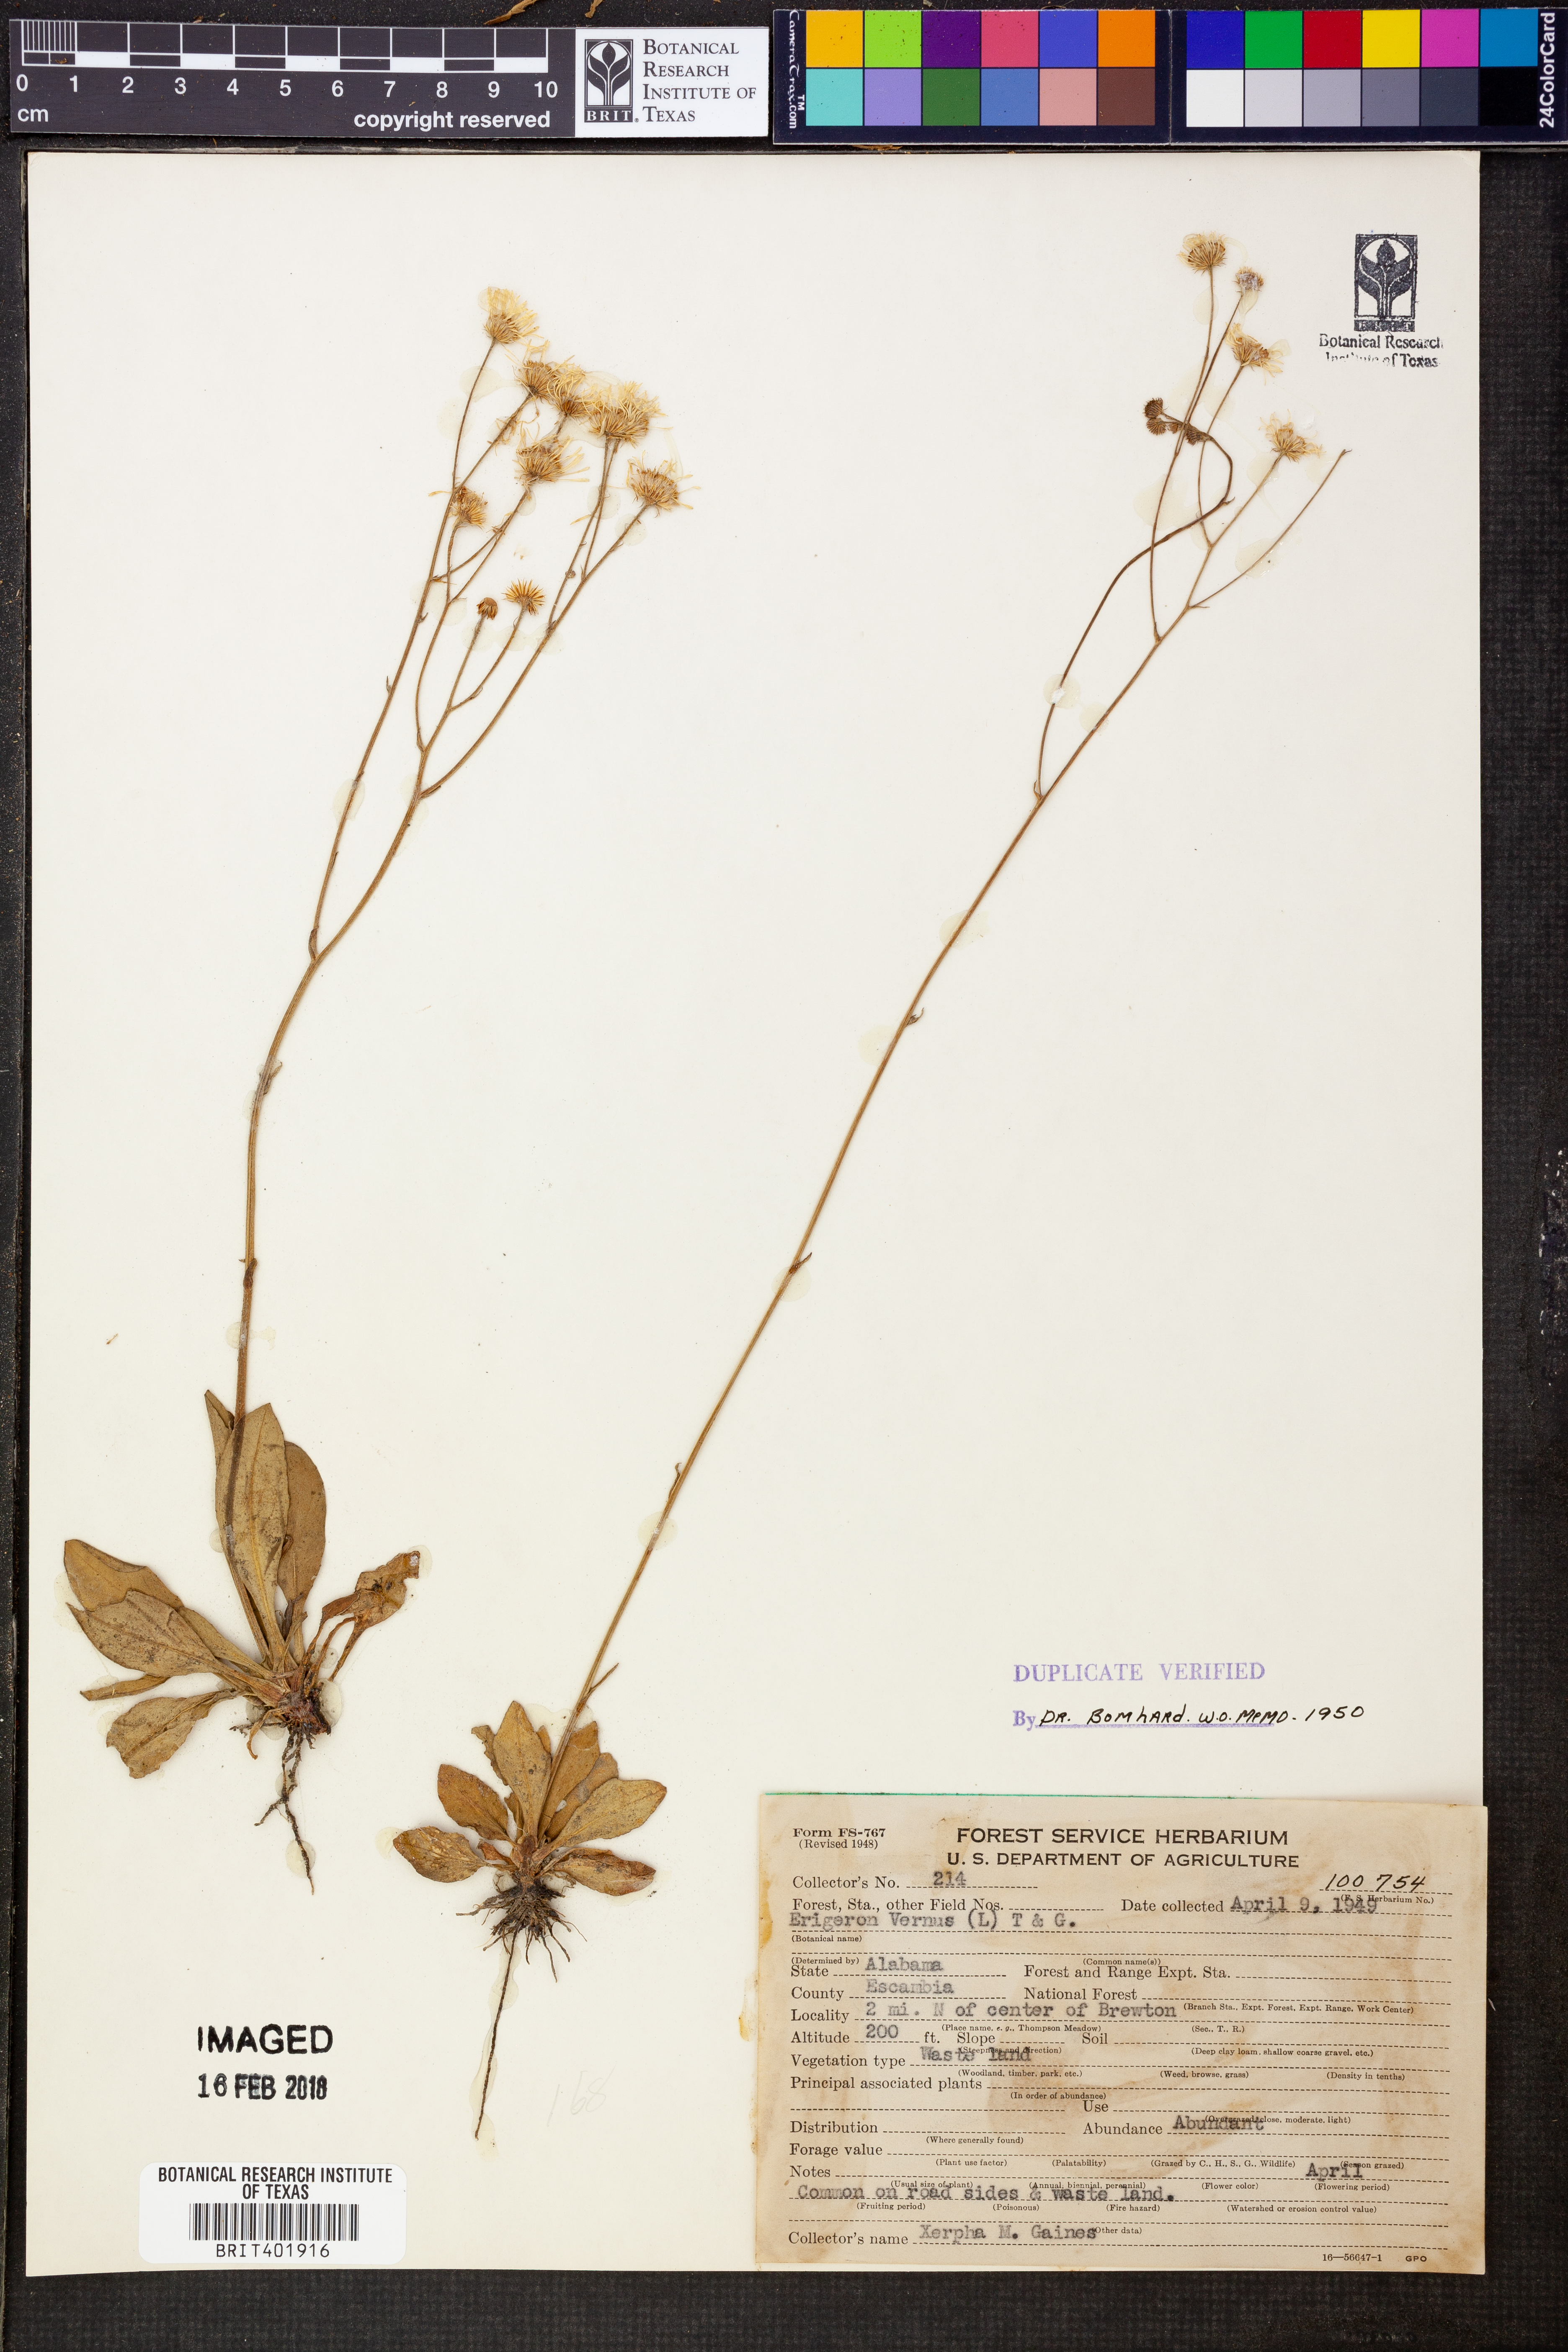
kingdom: Plantae
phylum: Tracheophyta
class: Magnoliopsida
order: Asterales
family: Asteraceae
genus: Erigeron
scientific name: Erigeron vernus
